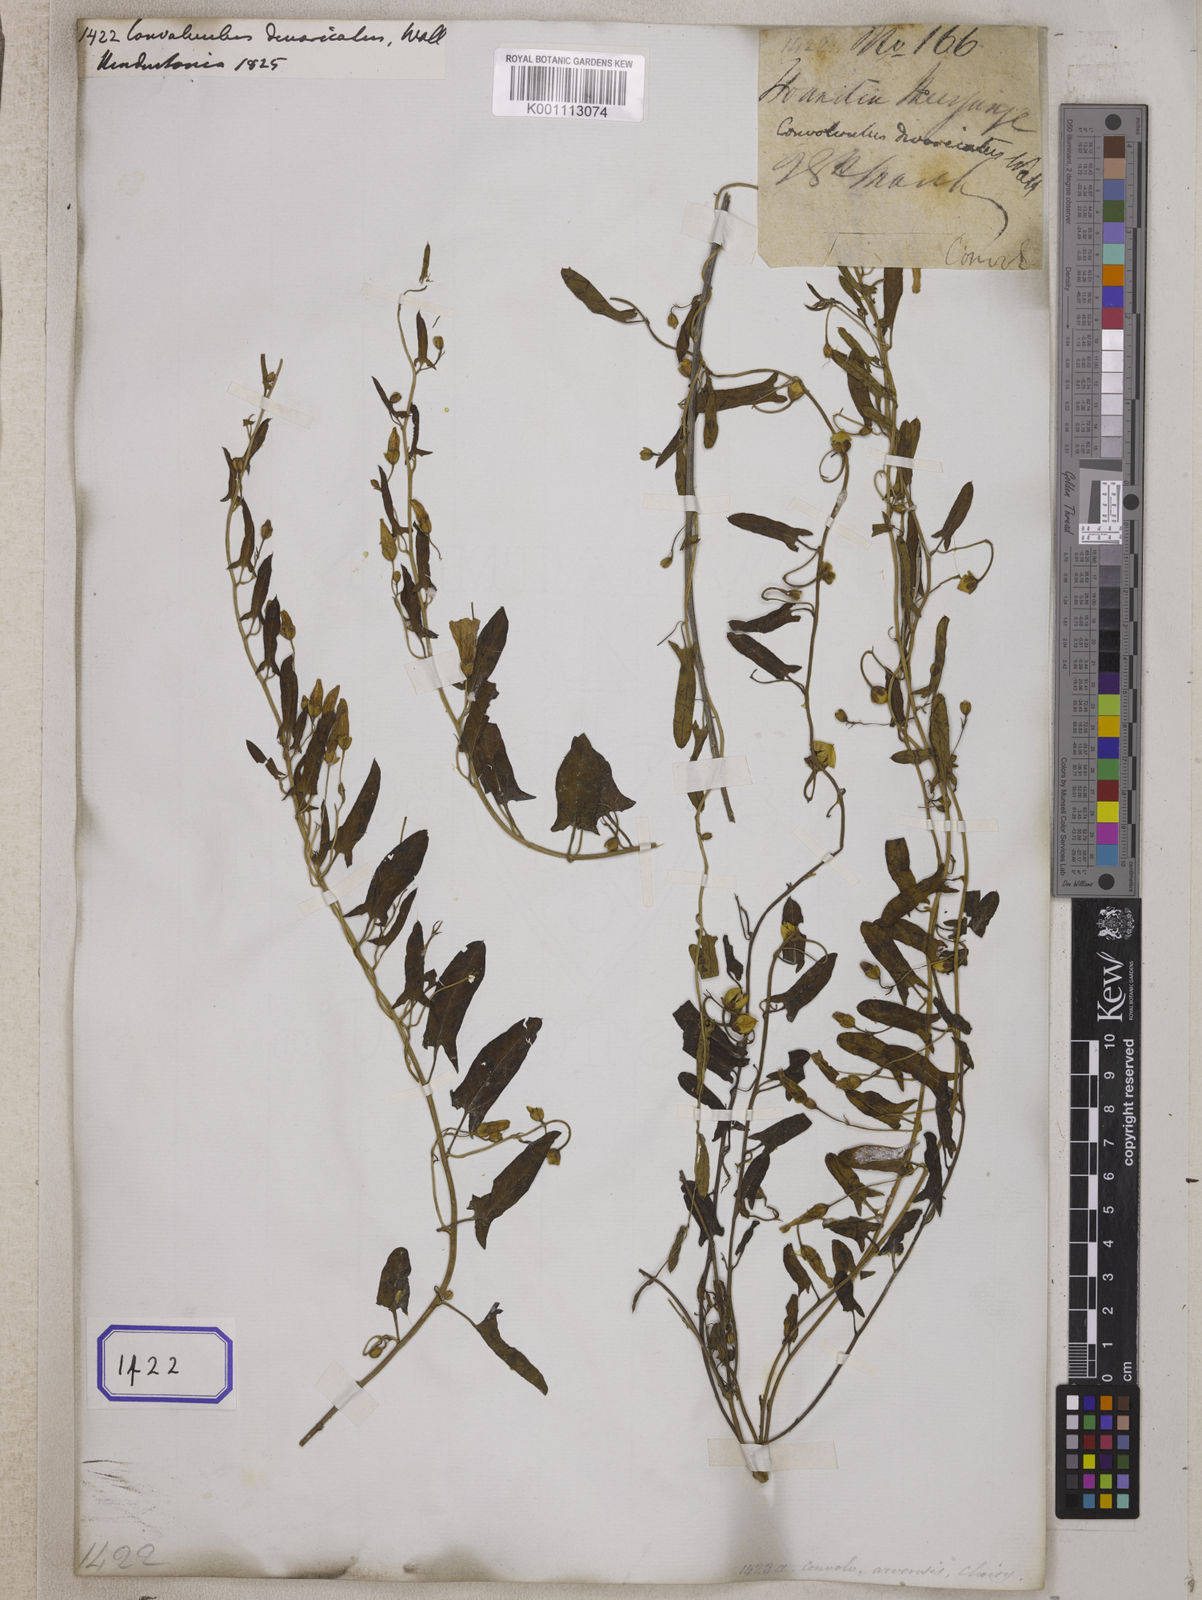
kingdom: Plantae
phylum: Tracheophyta
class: Magnoliopsida
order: Solanales
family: Convolvulaceae
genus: Convolvulus
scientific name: Convolvulus
